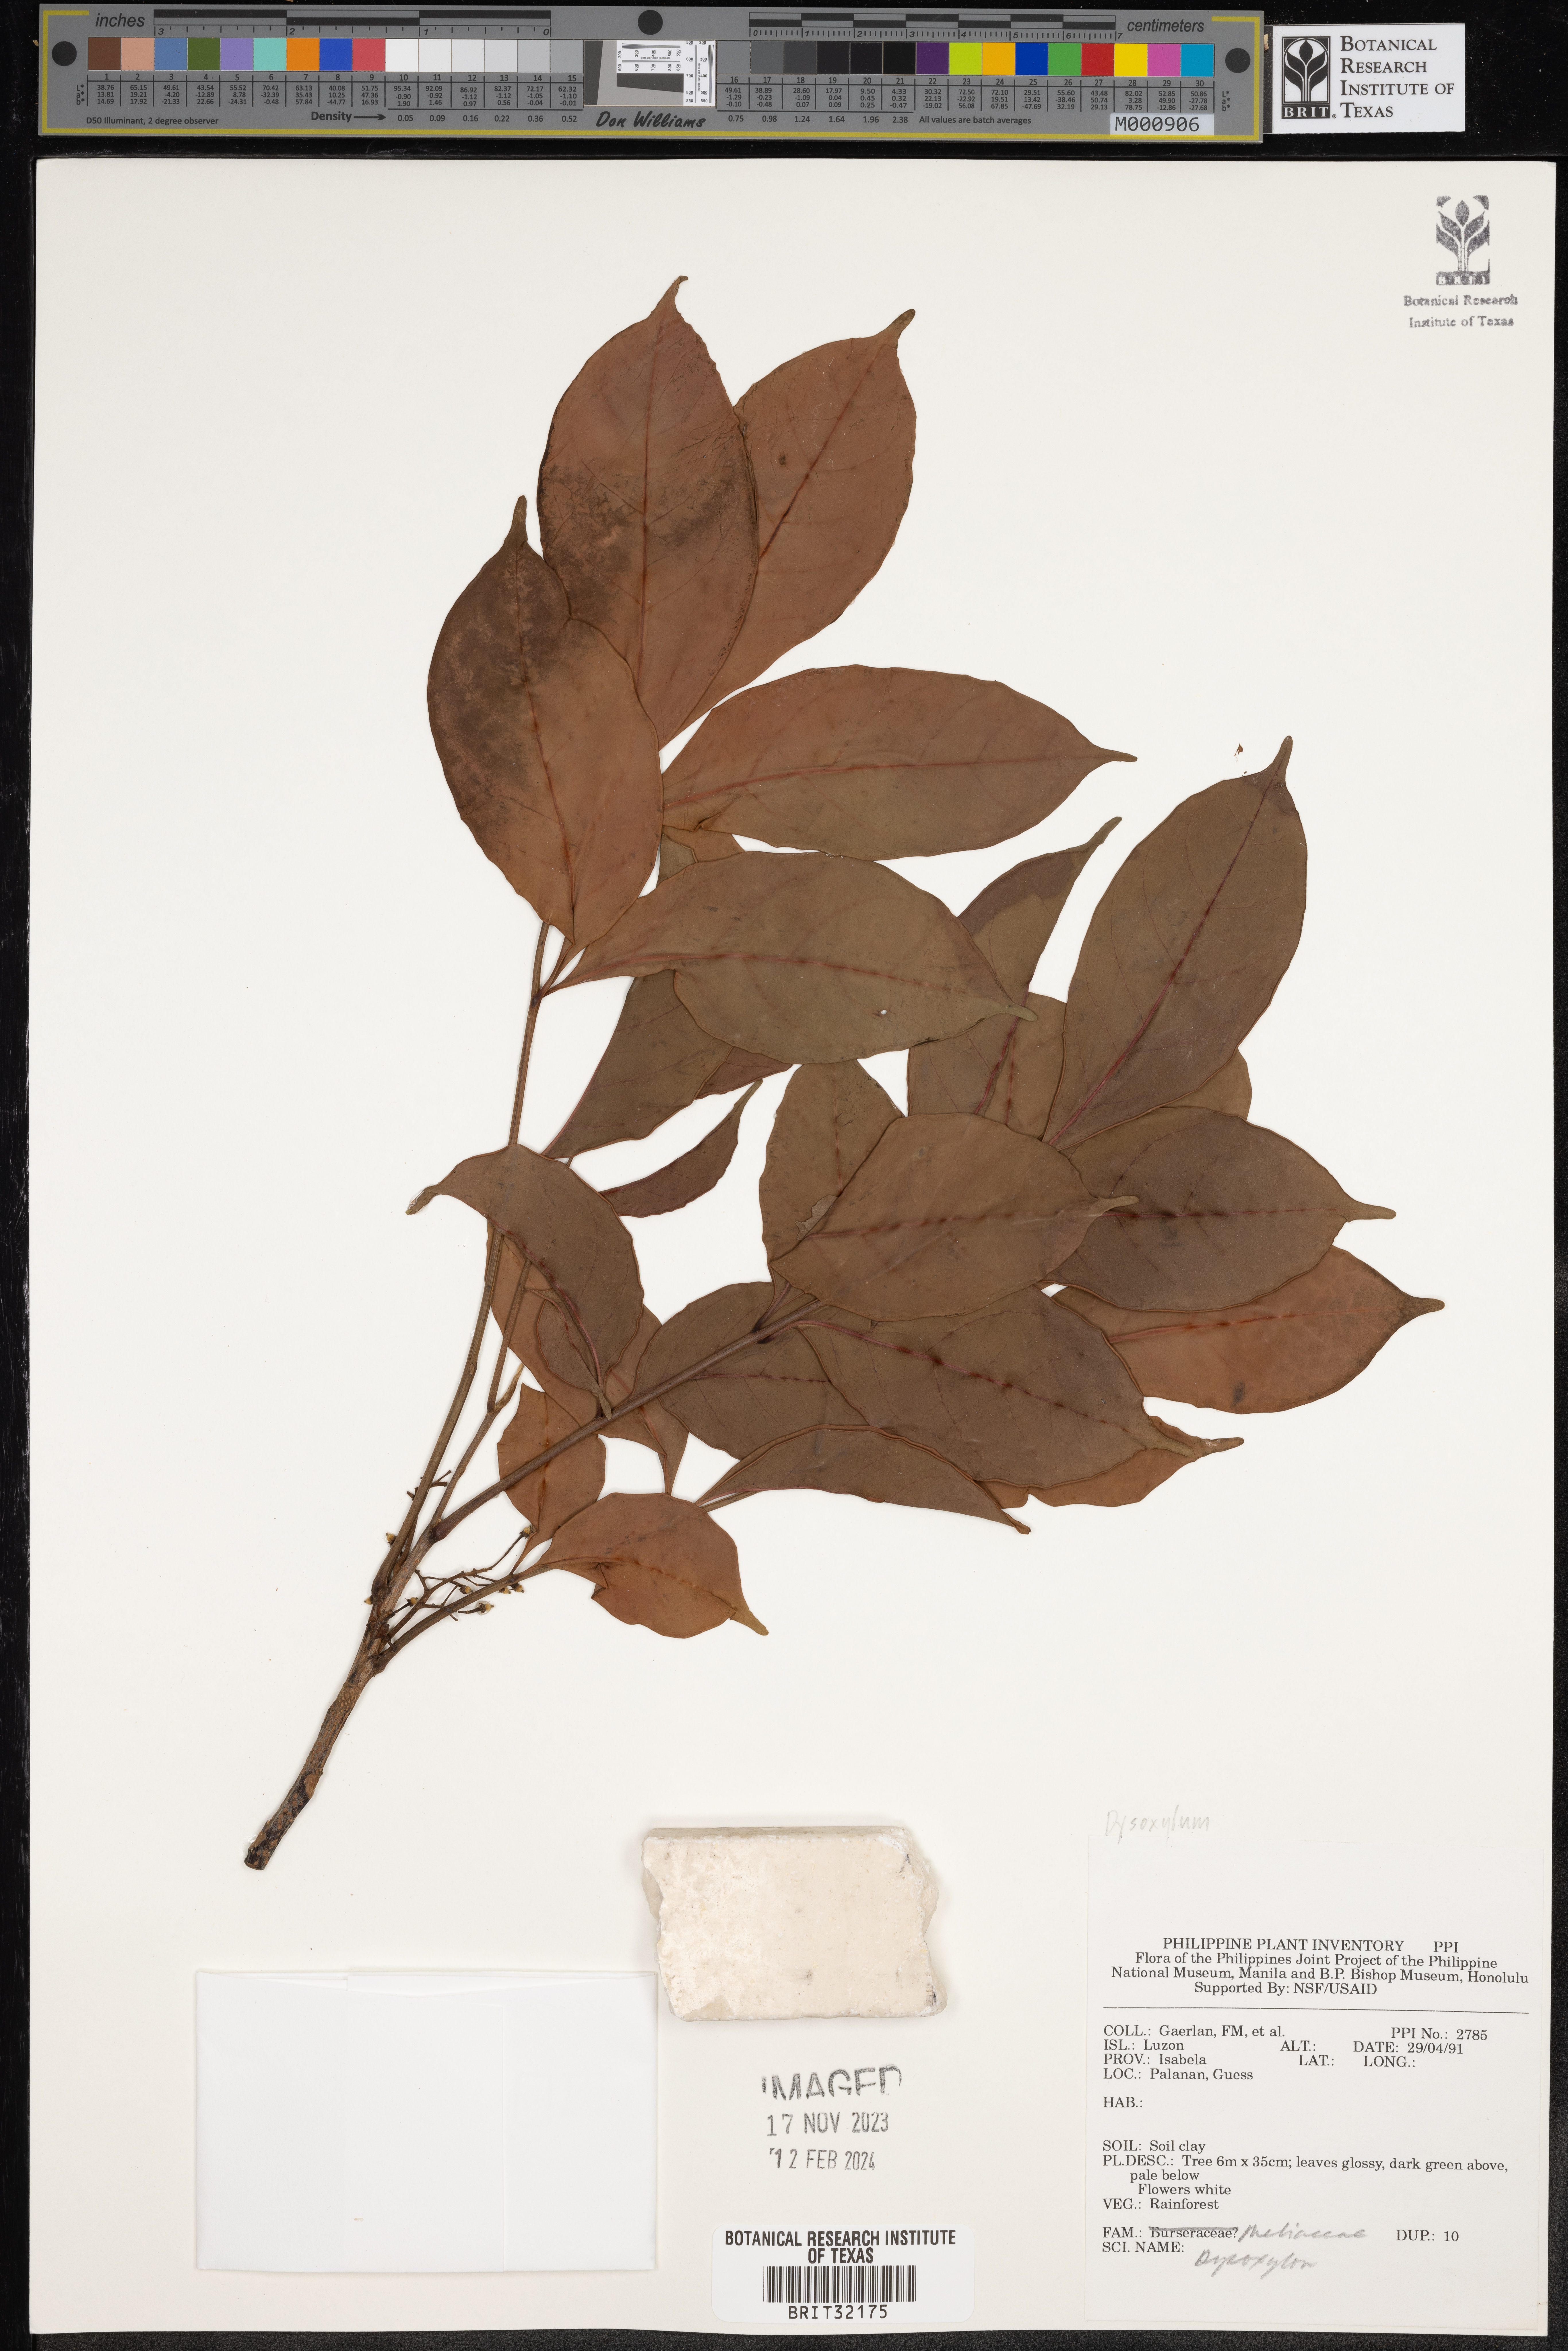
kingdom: Plantae
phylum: Tracheophyta
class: Magnoliopsida
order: Sapindales
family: Meliaceae
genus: Dysoxylum
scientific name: Dysoxylum
